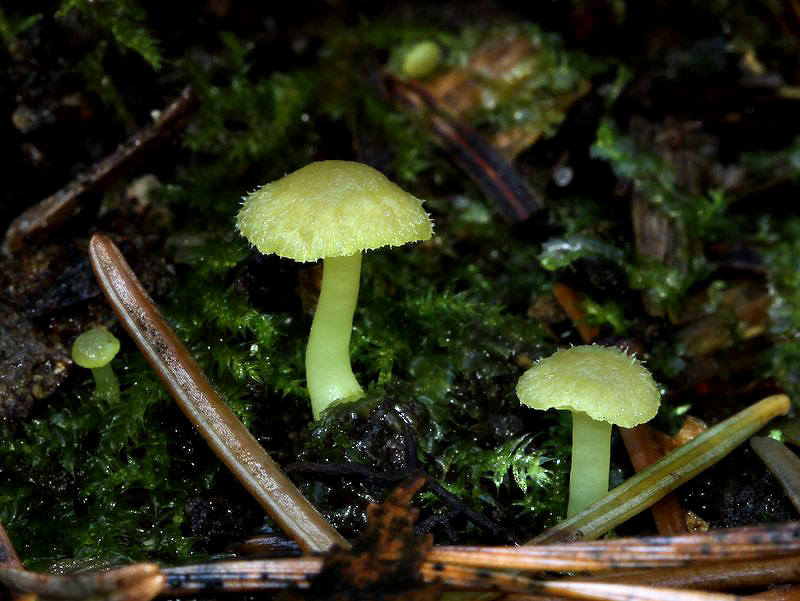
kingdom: Fungi
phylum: Basidiomycota
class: Agaricomycetes
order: Agaricales
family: Hygrophoraceae
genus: Chrysomphalina
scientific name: Chrysomphalina grossula
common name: stød-gyldenblad
